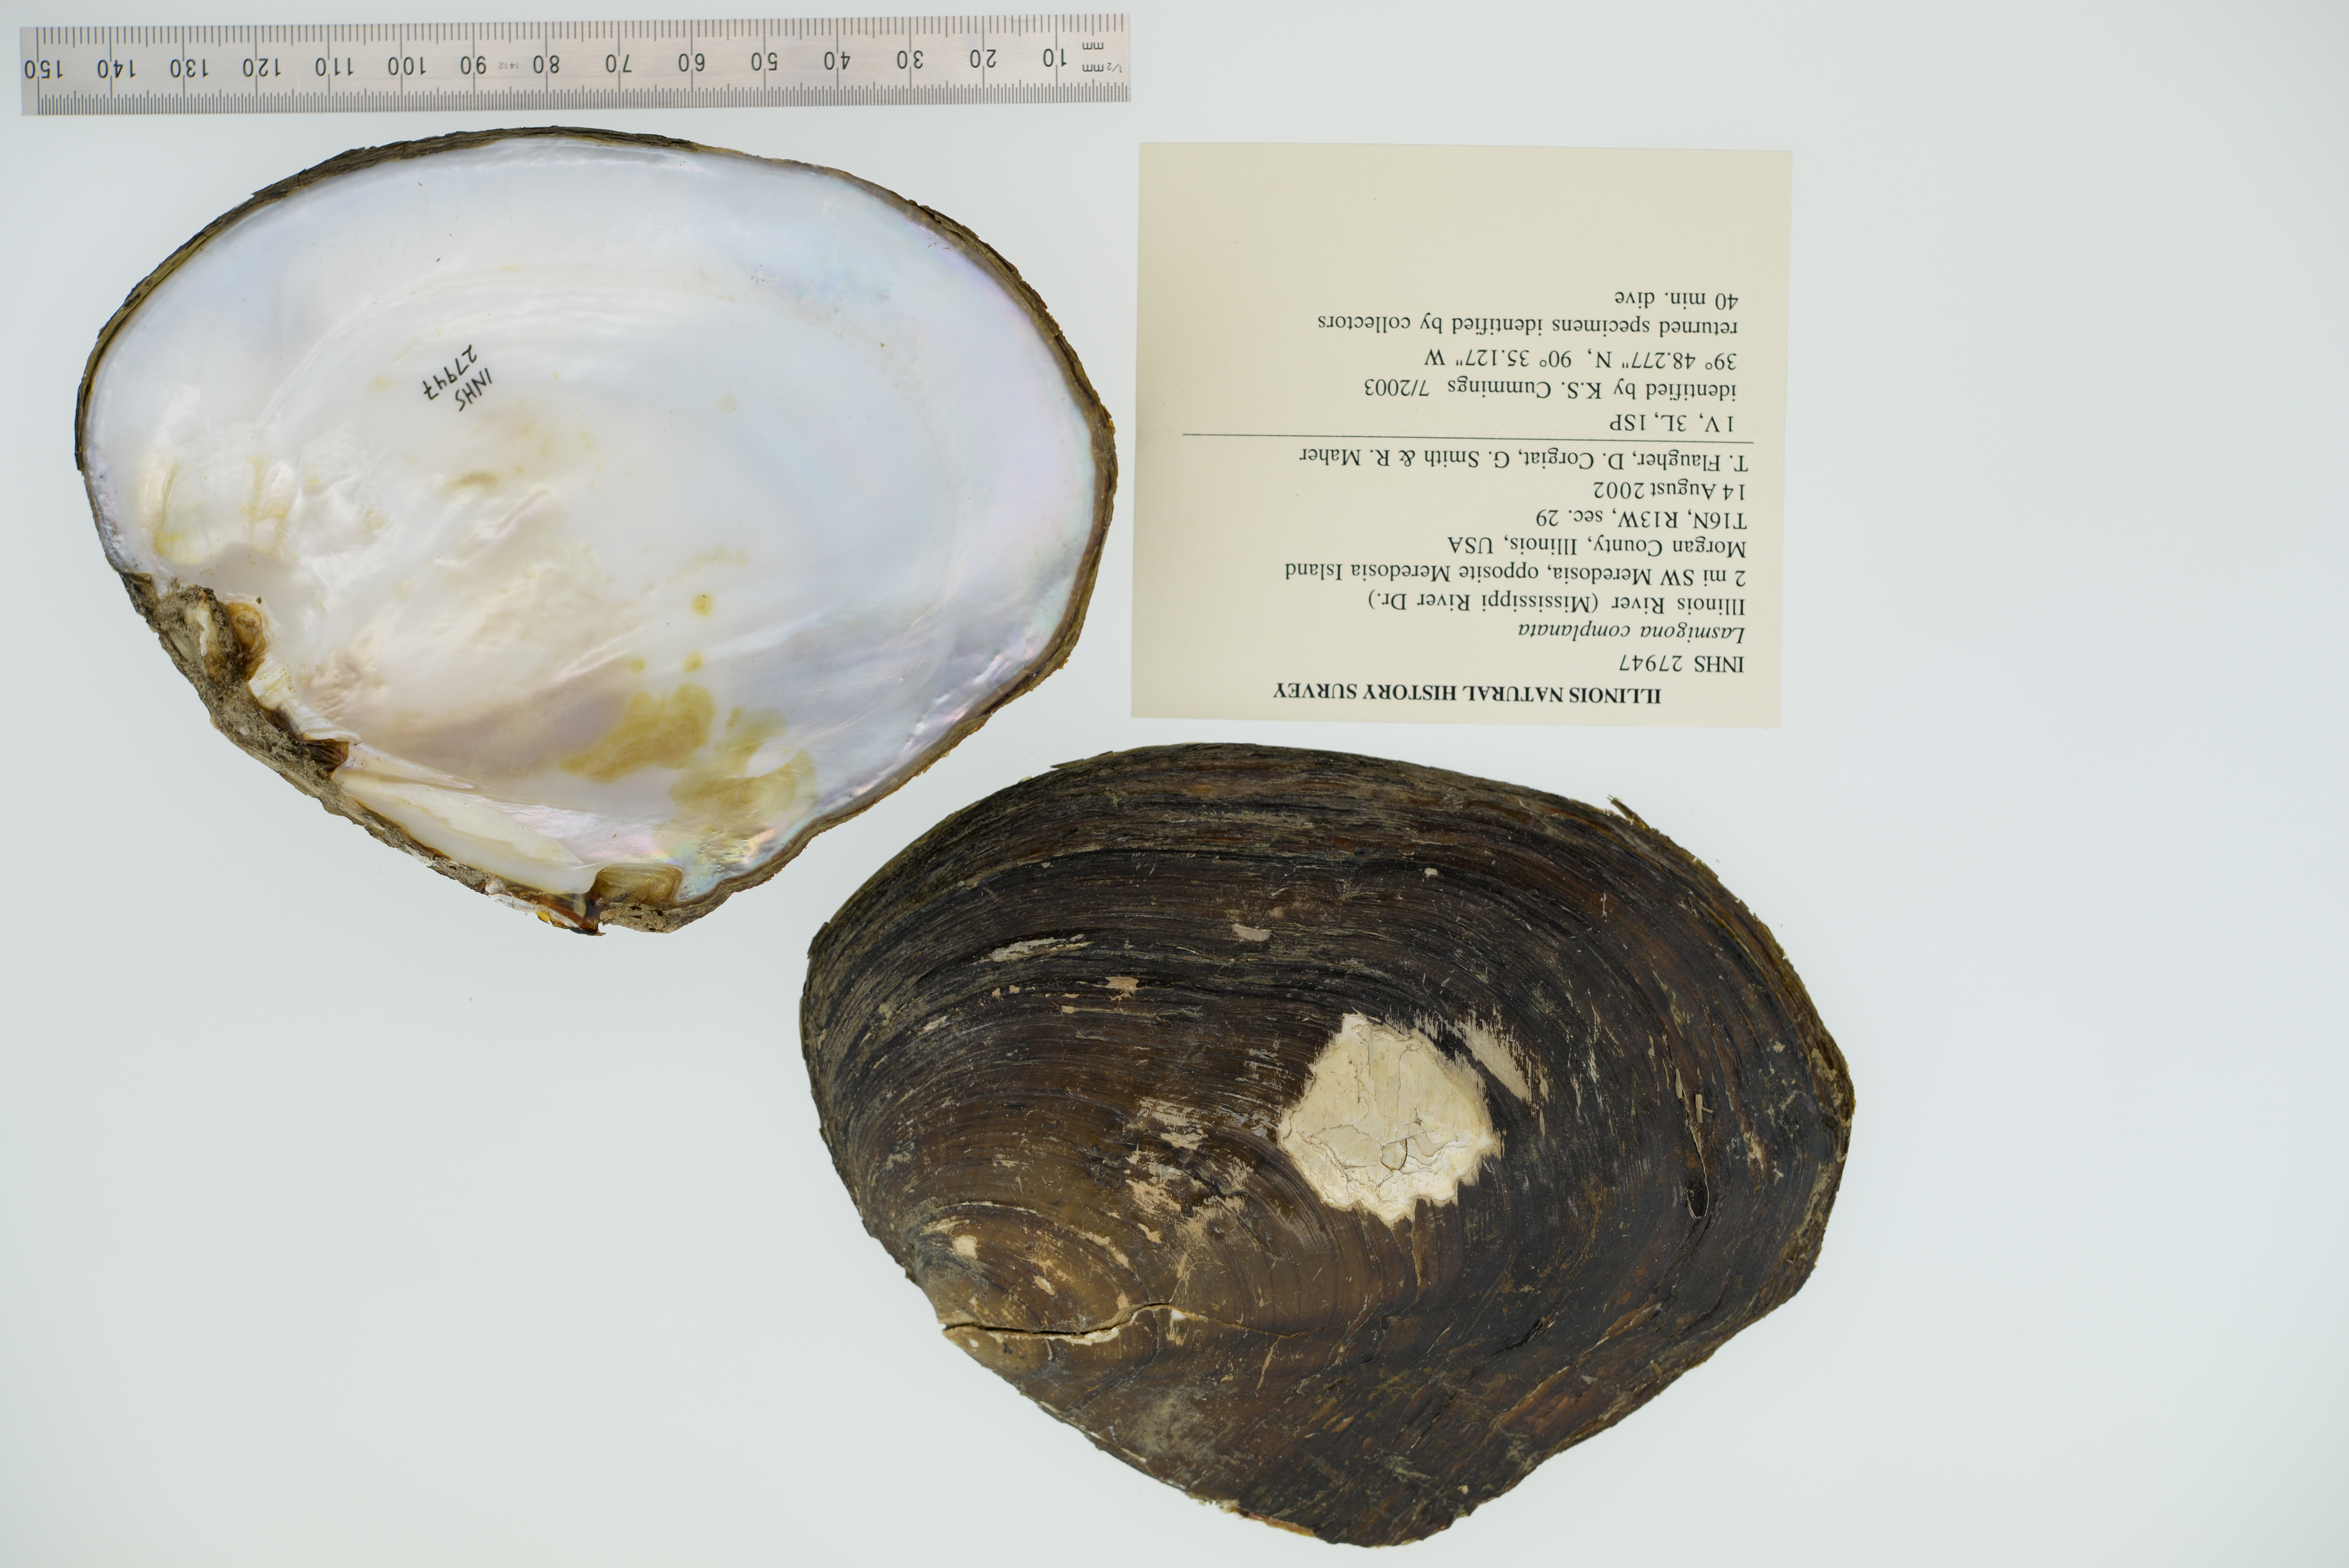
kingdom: Animalia
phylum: Mollusca
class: Bivalvia
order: Unionida
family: Unionidae
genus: Lasmigona
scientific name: Lasmigona complanata
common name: White heelsplitter
